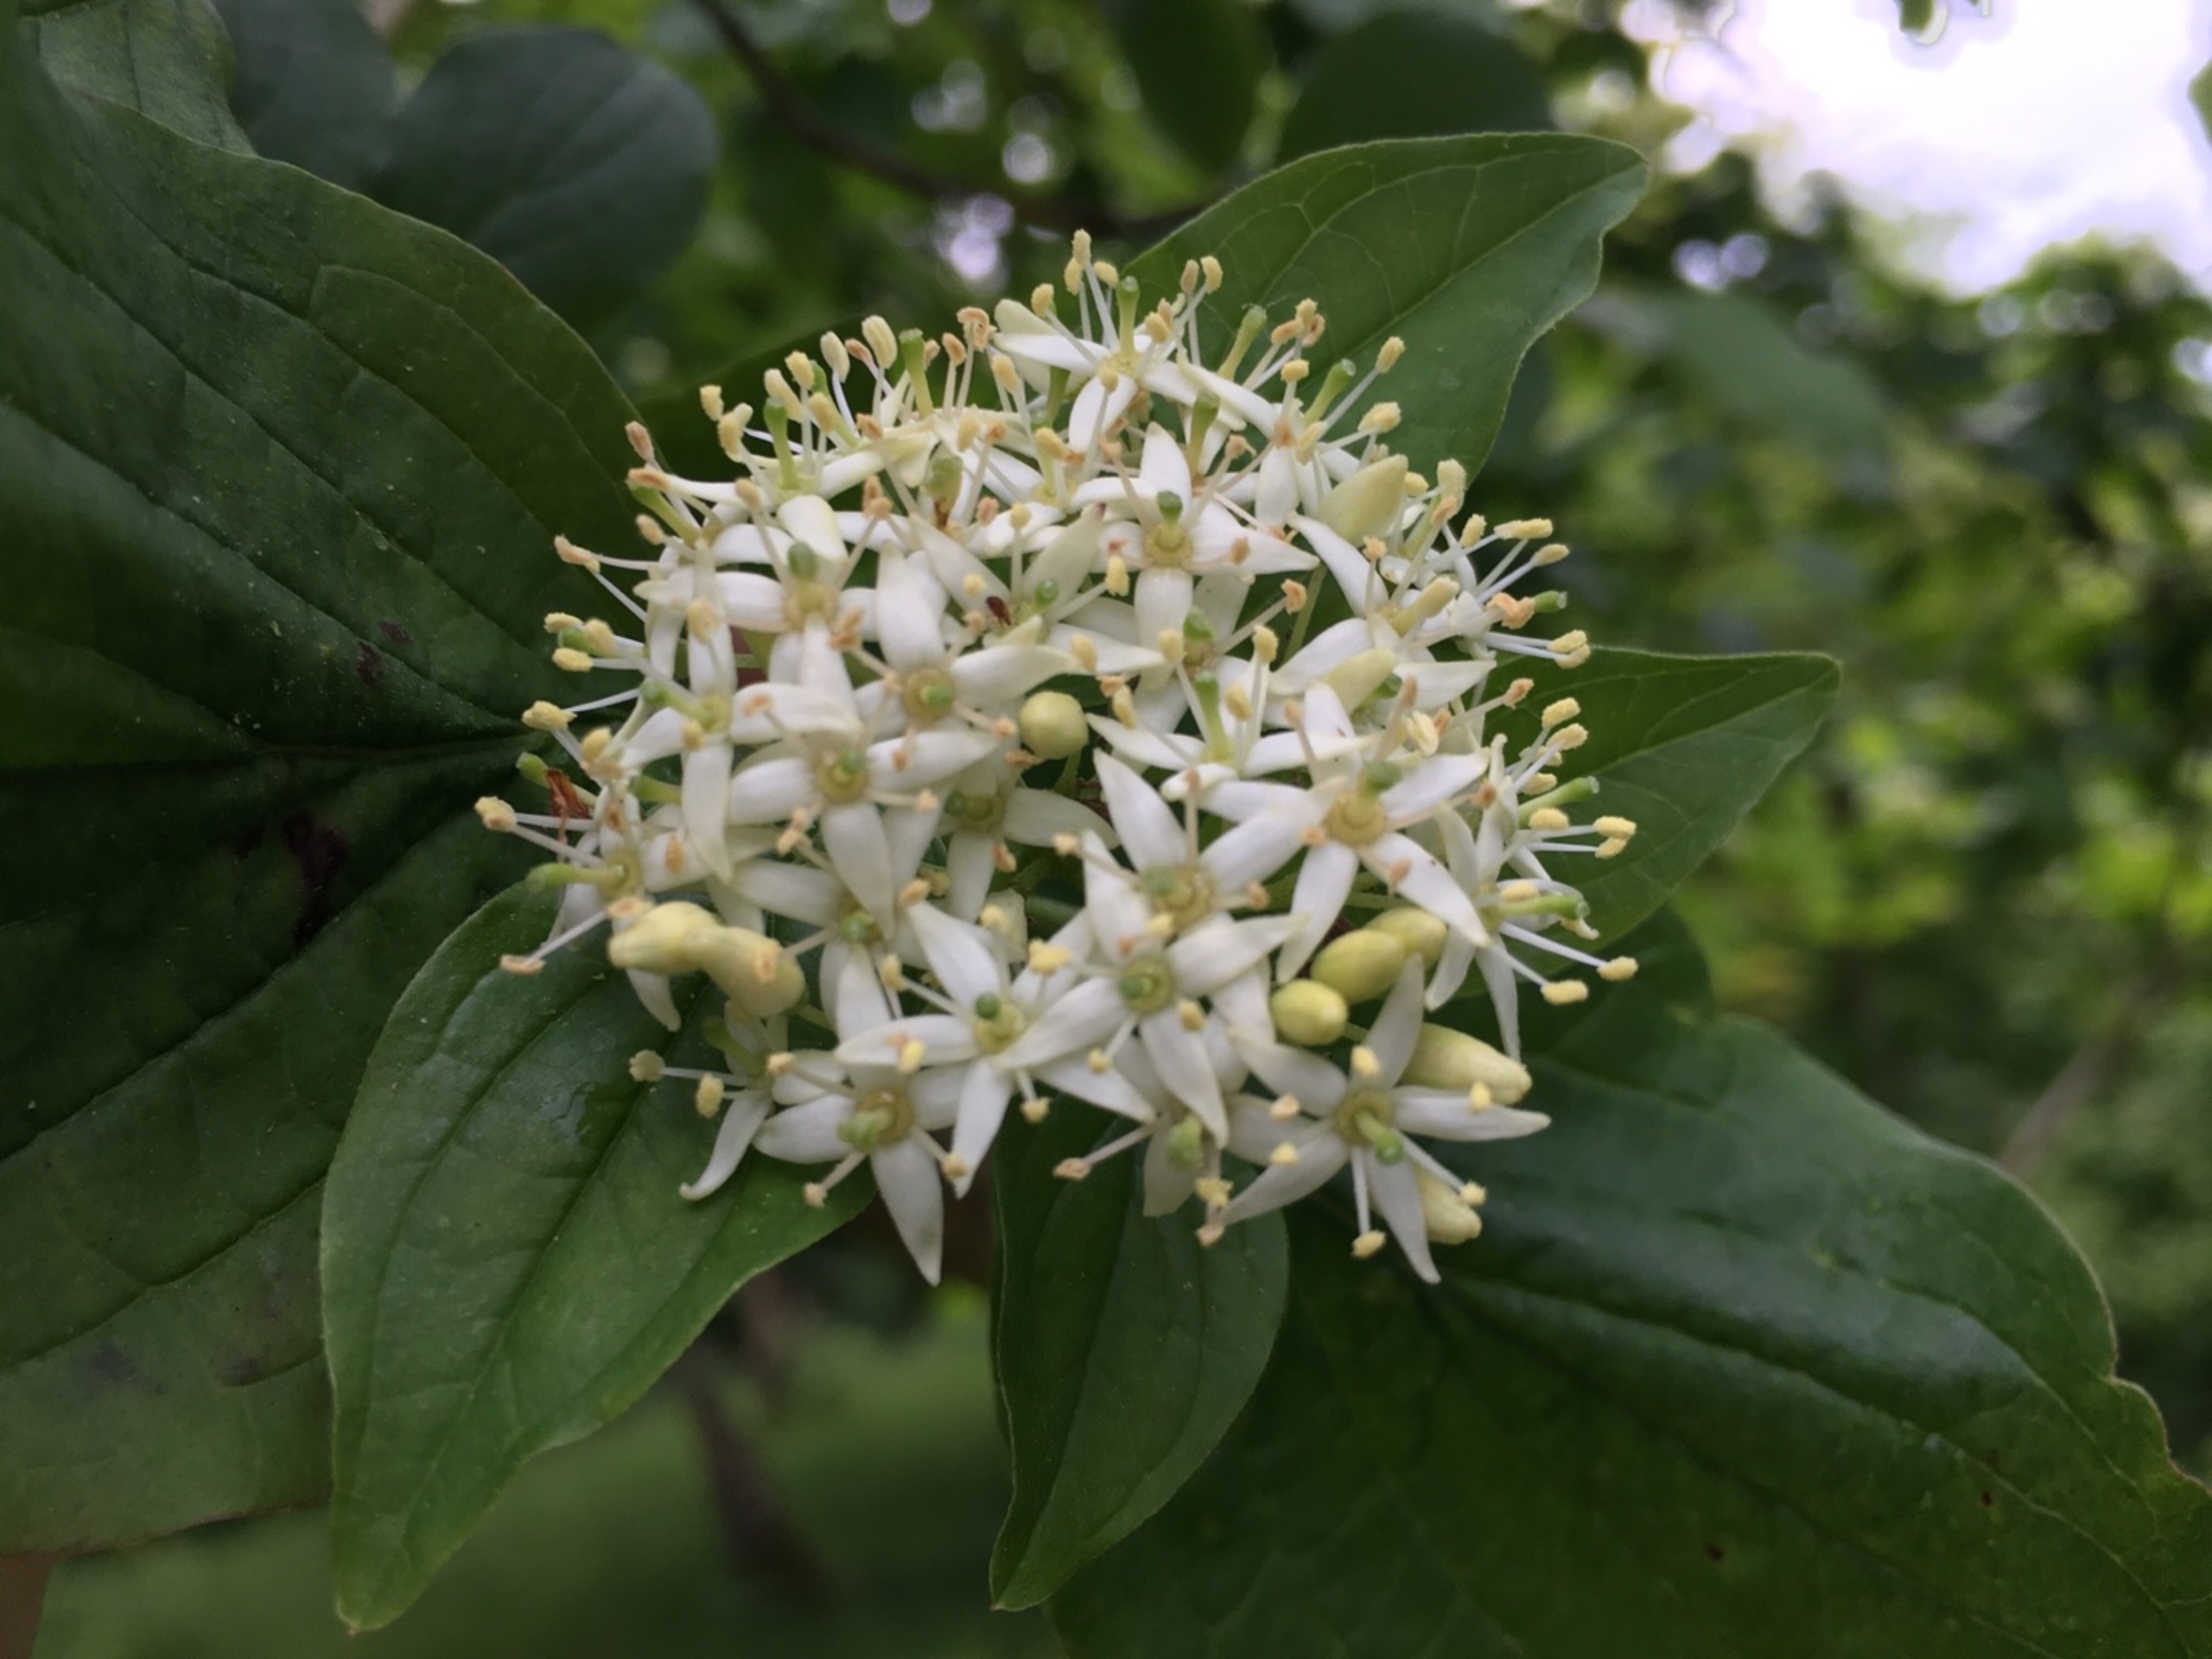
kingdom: Plantae
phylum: Tracheophyta
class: Magnoliopsida
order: Cornales
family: Cornaceae
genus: Cornus
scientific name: Cornus sanguinea
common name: Rød kornel
